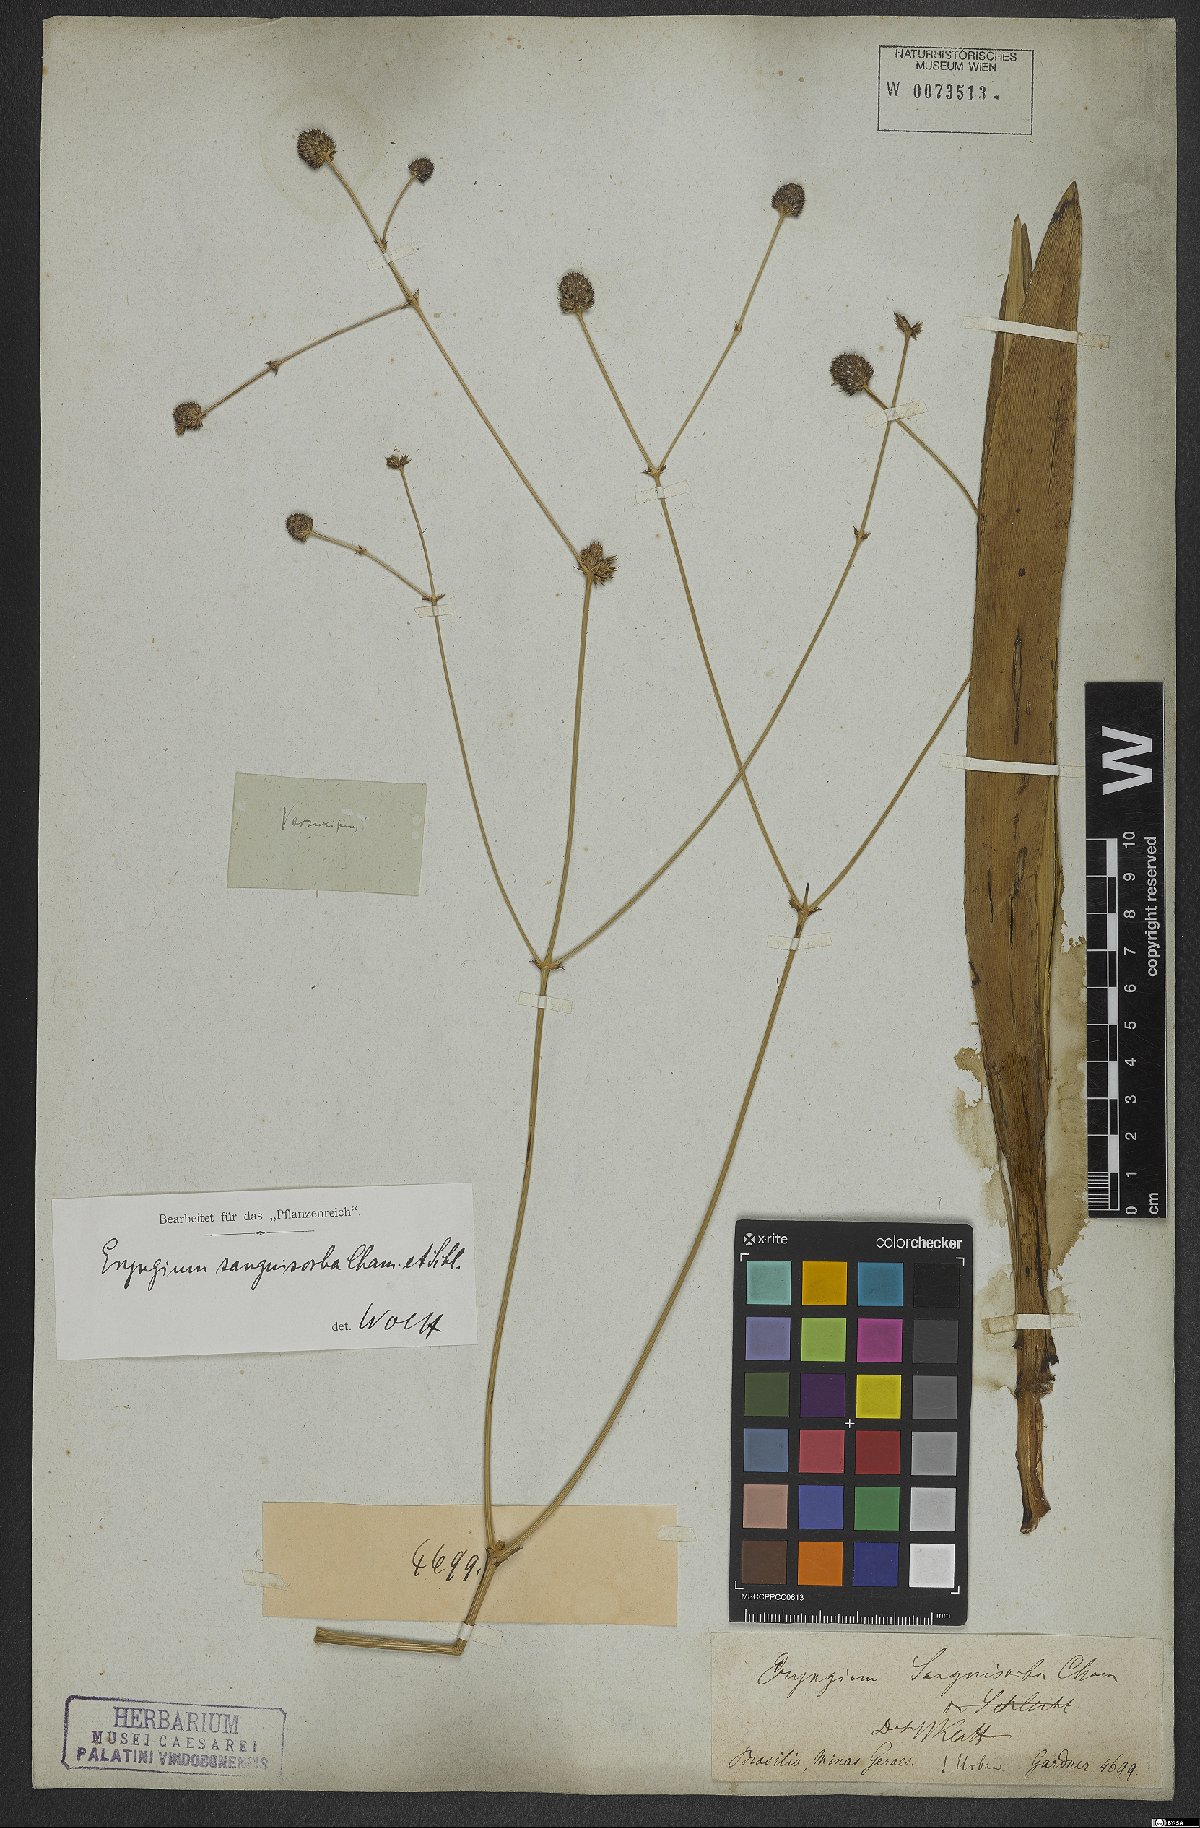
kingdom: Plantae
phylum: Tracheophyta
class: Magnoliopsida
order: Apiales
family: Apiaceae
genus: Eryngium
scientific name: Eryngium sanguisorba
